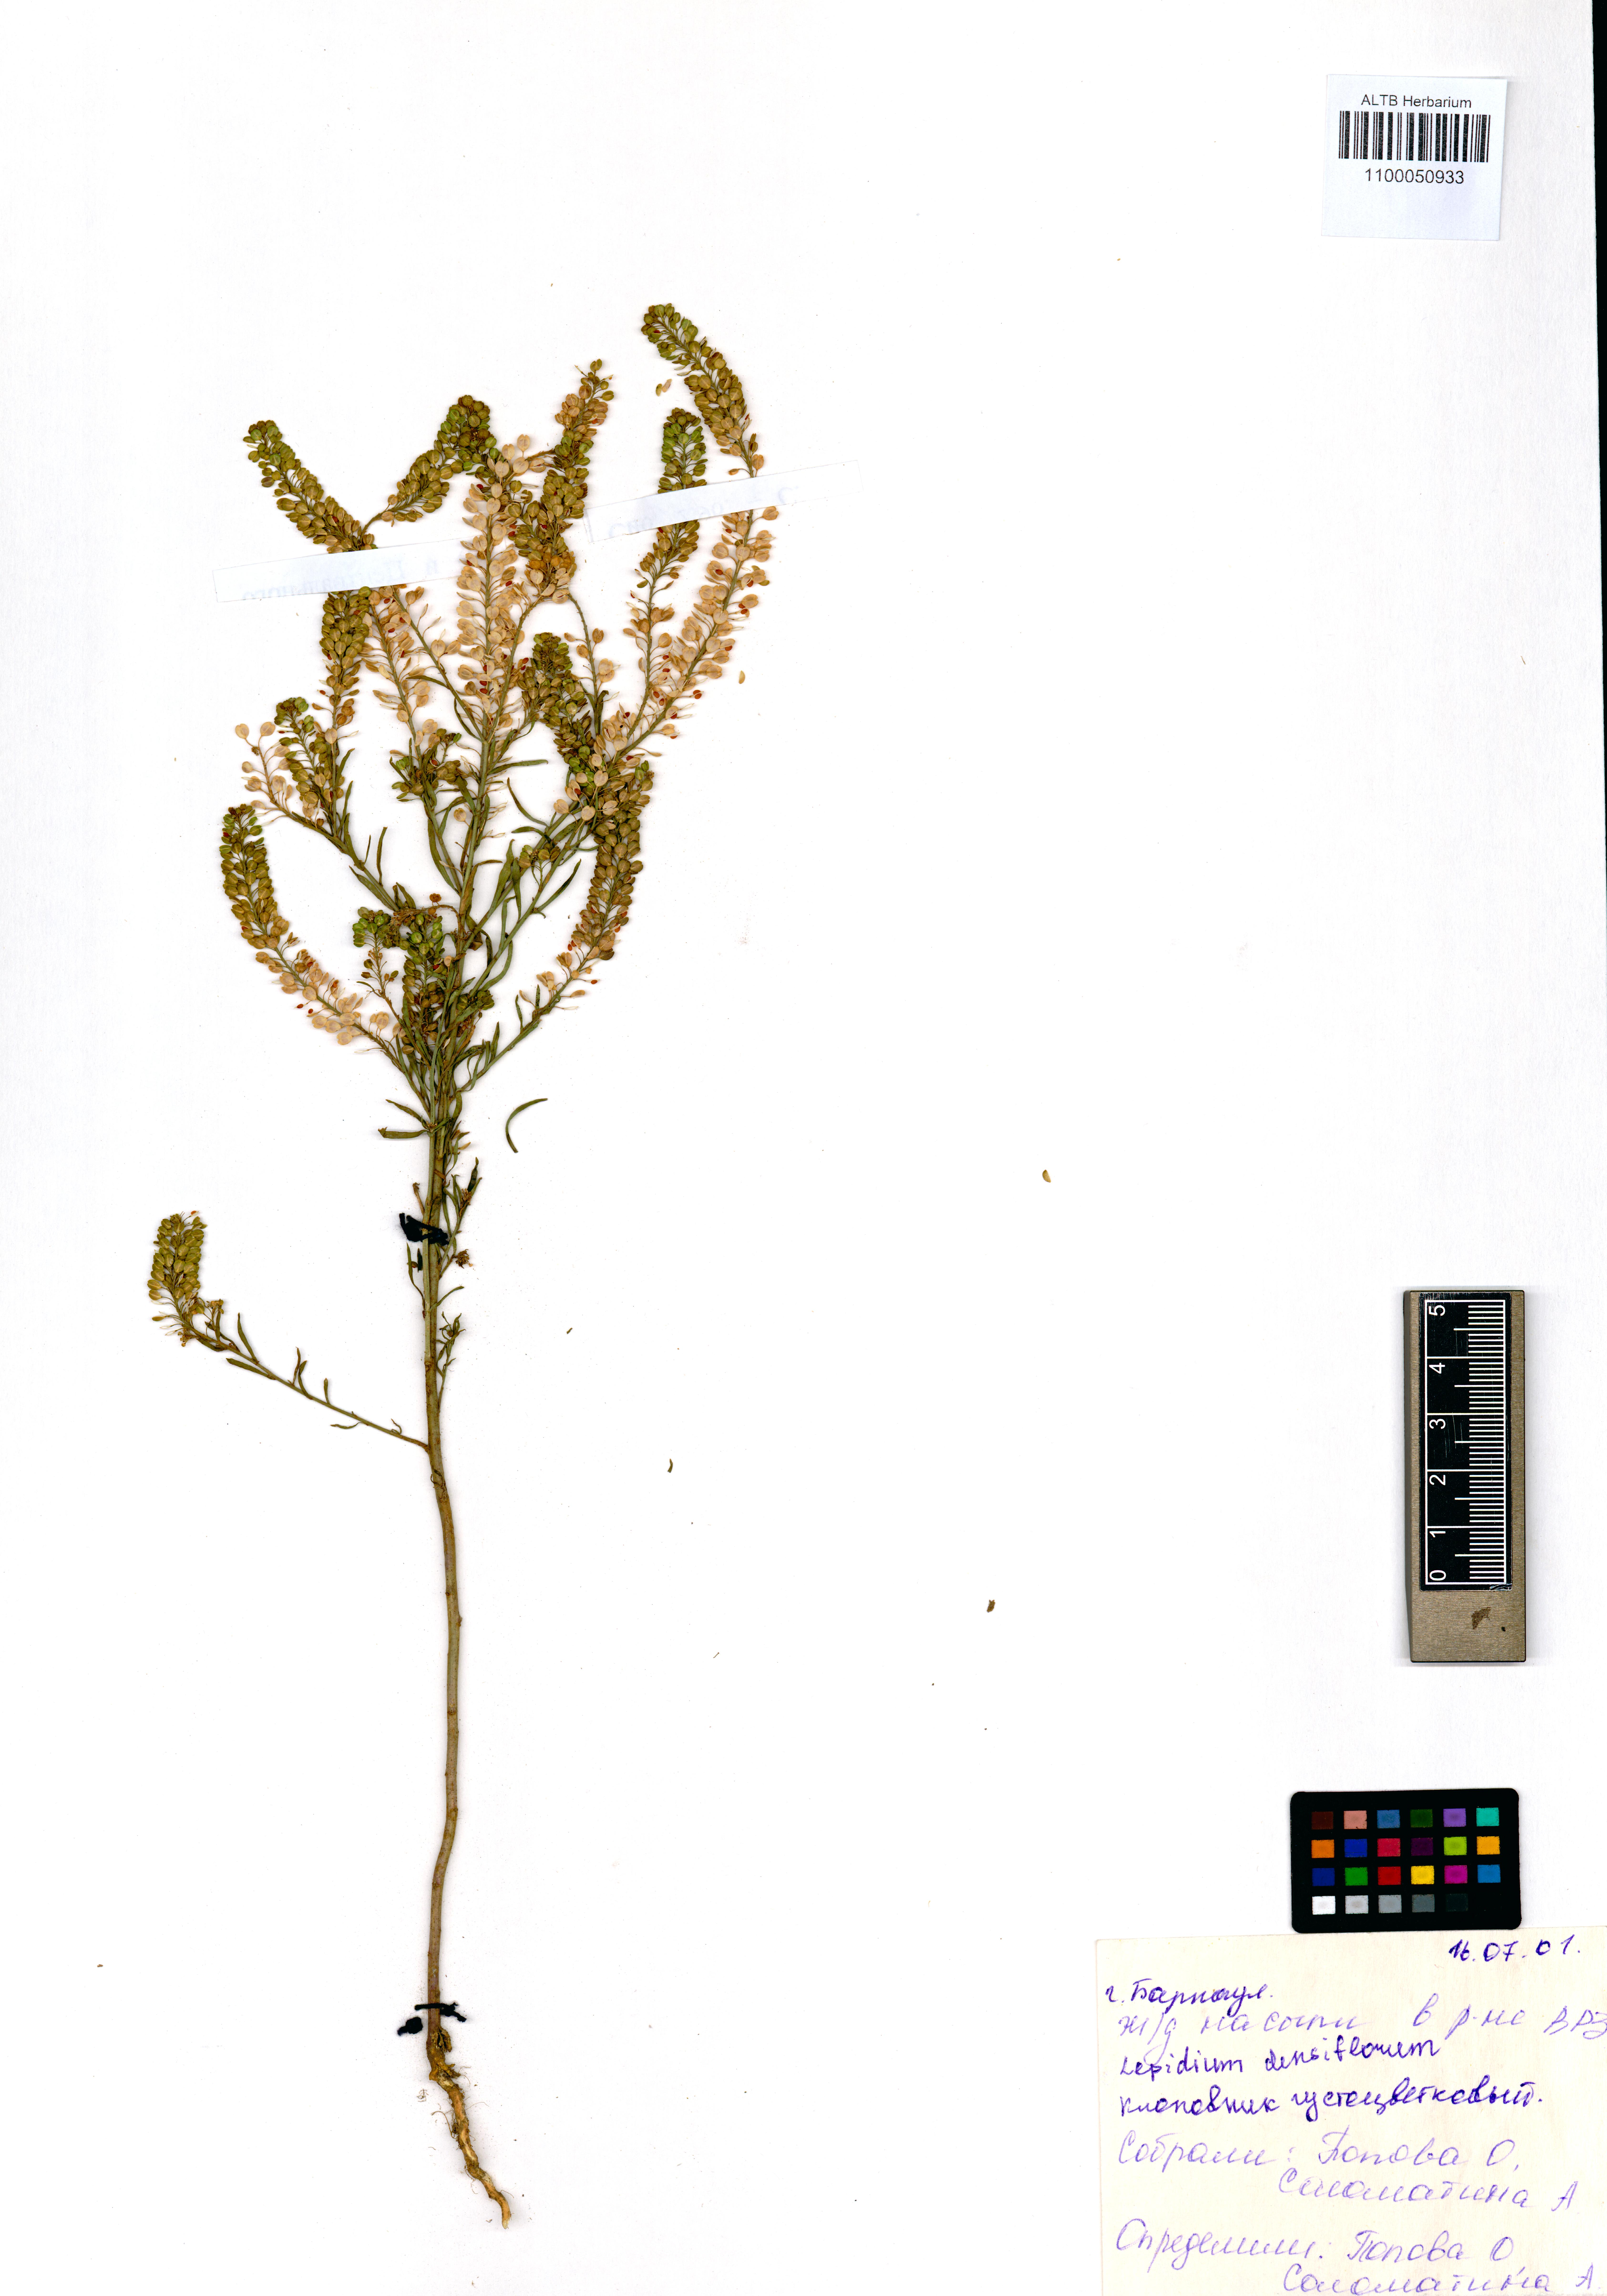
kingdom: Plantae
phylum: Tracheophyta
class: Magnoliopsida
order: Brassicales
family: Brassicaceae
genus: Lepidium
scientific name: Lepidium densiflorum
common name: Miner's pepperwort
